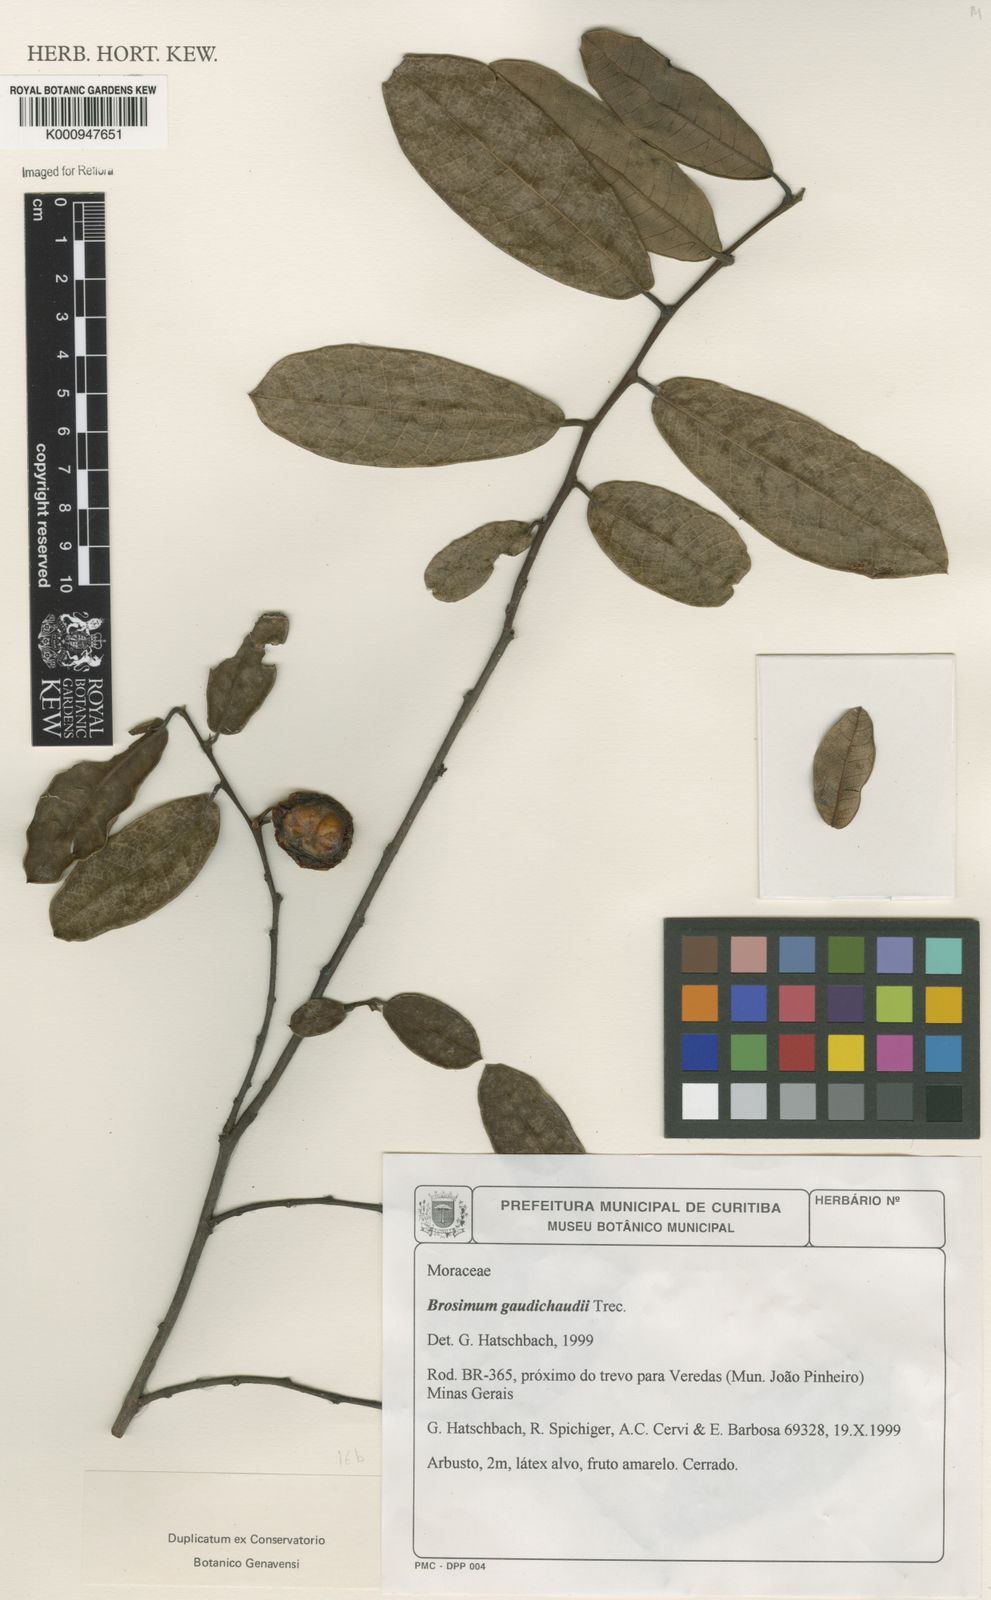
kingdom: Plantae
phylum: Tracheophyta
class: Magnoliopsida
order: Rosales
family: Moraceae
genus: Brosimum
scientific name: Brosimum
